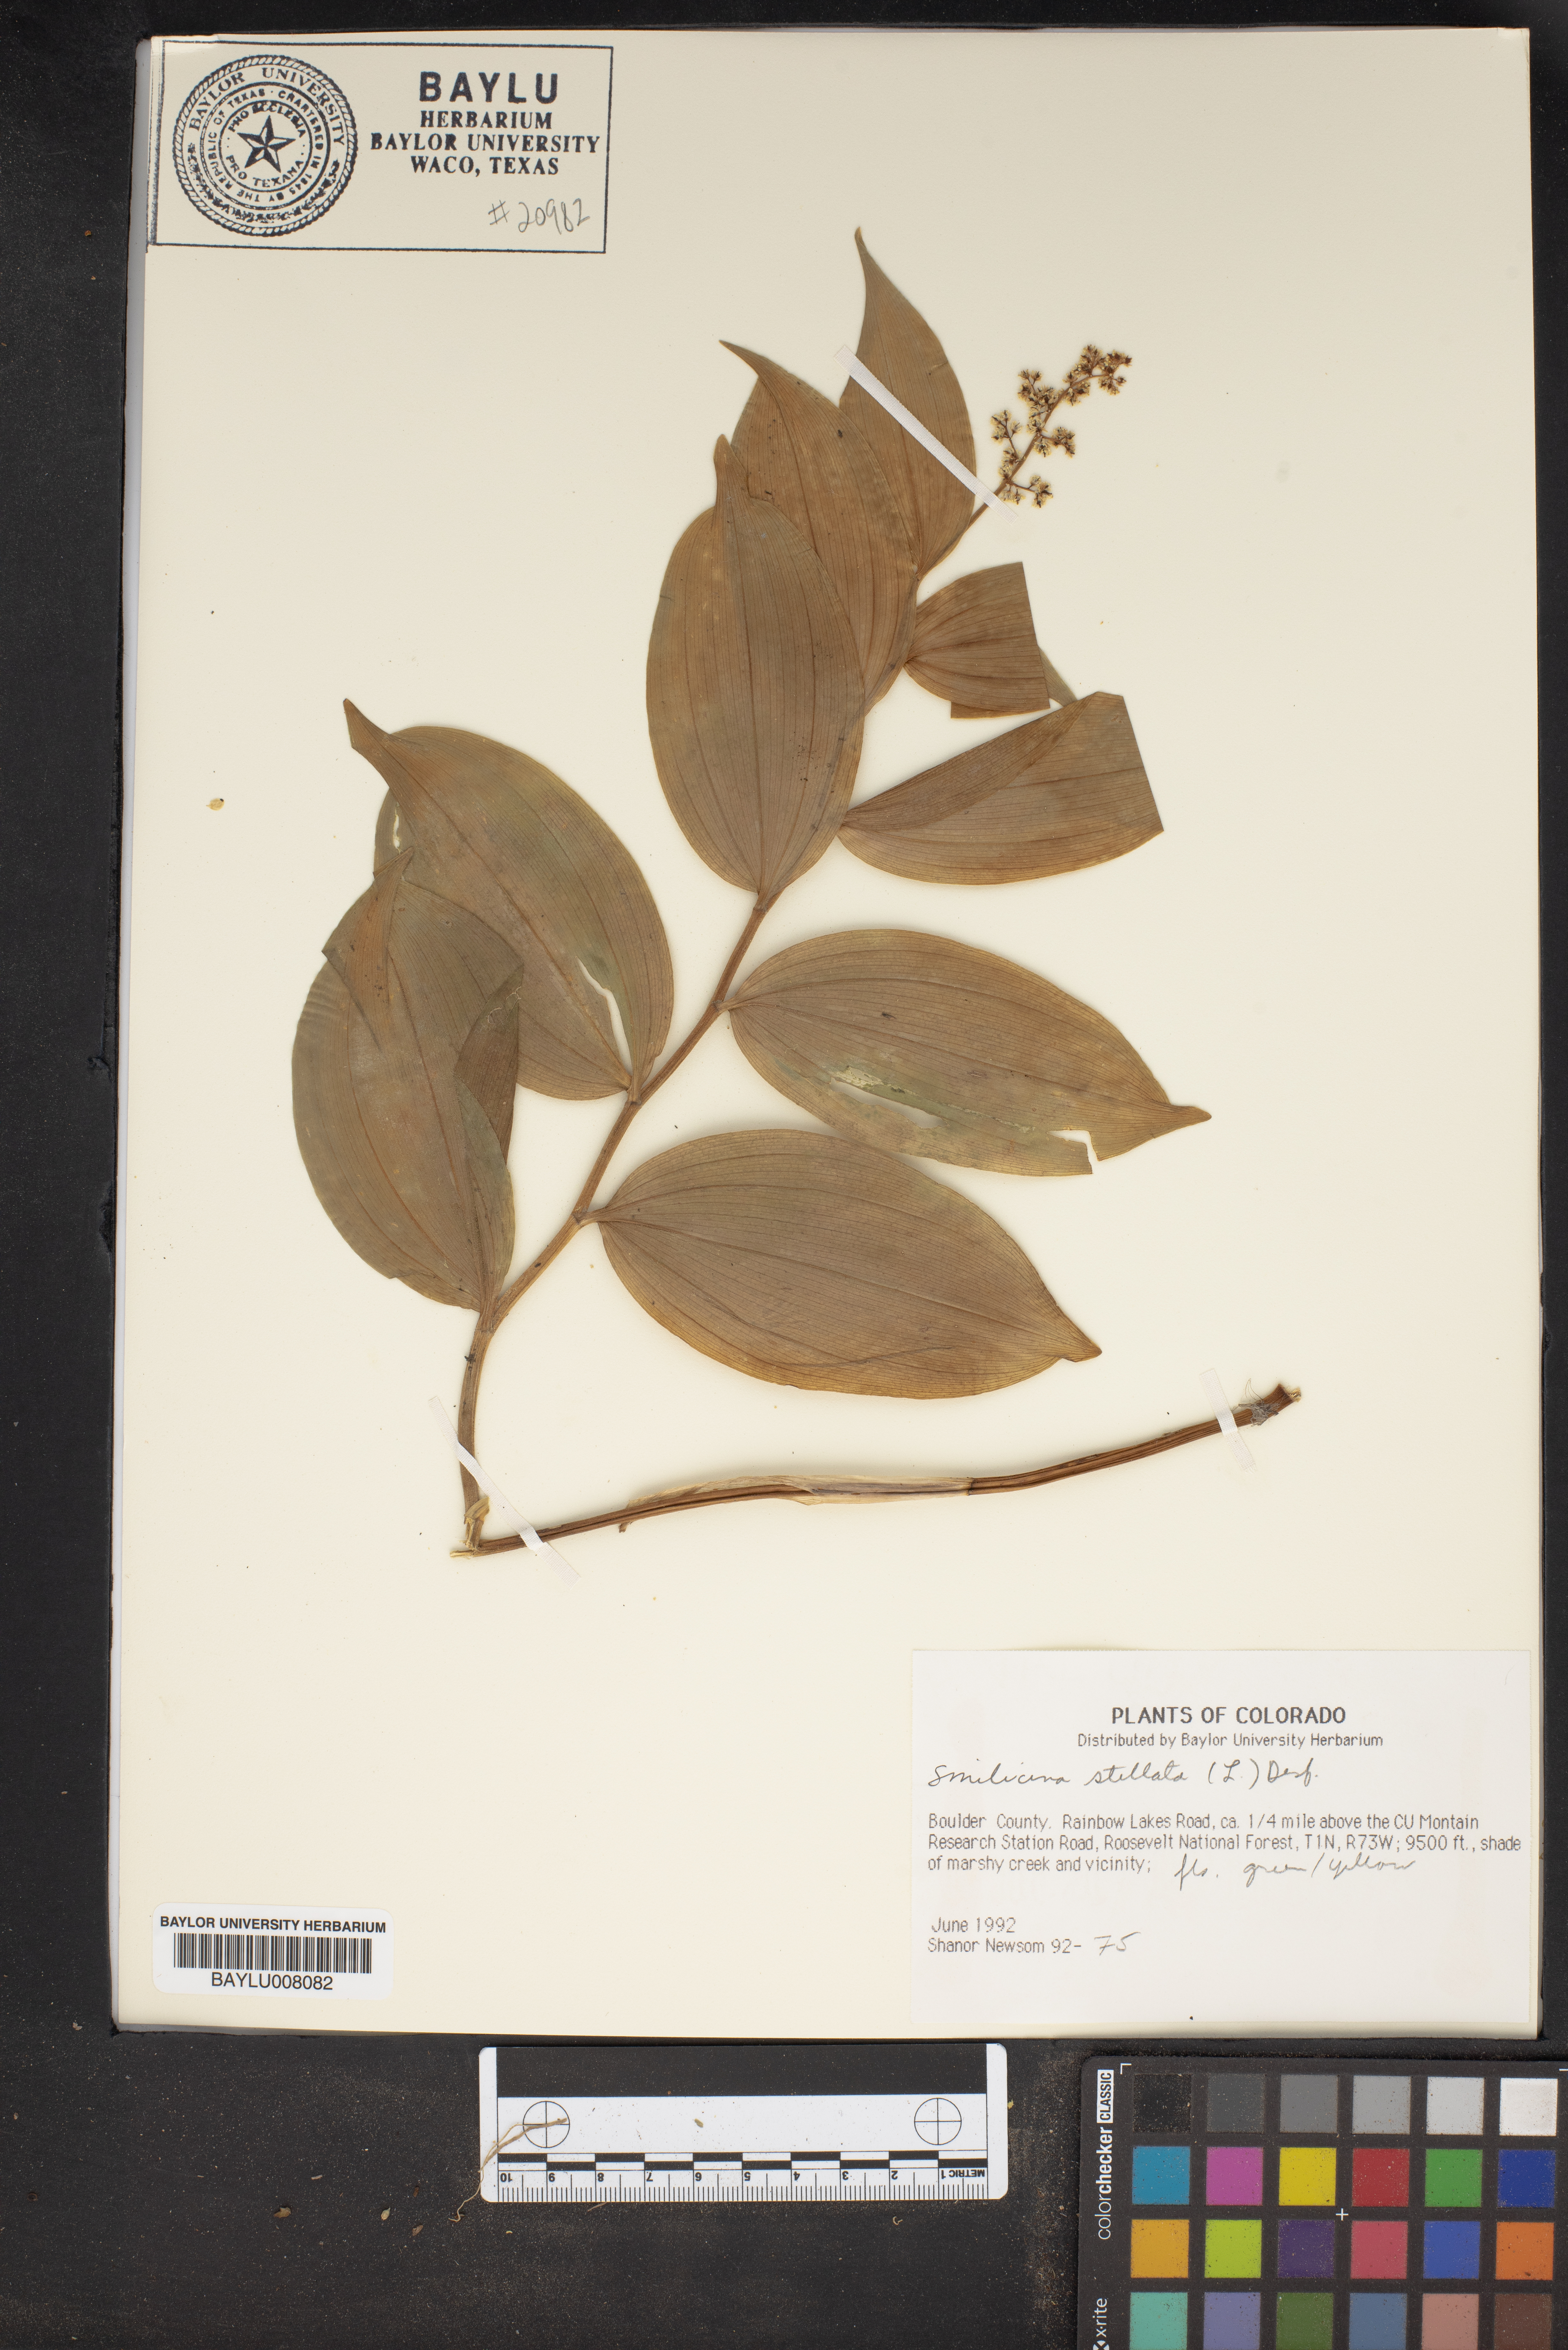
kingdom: Plantae
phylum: Tracheophyta
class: Liliopsida
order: Asparagales
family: Asparagaceae
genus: Maianthemum
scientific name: Maianthemum stellatum
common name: Little false solomon's seal
